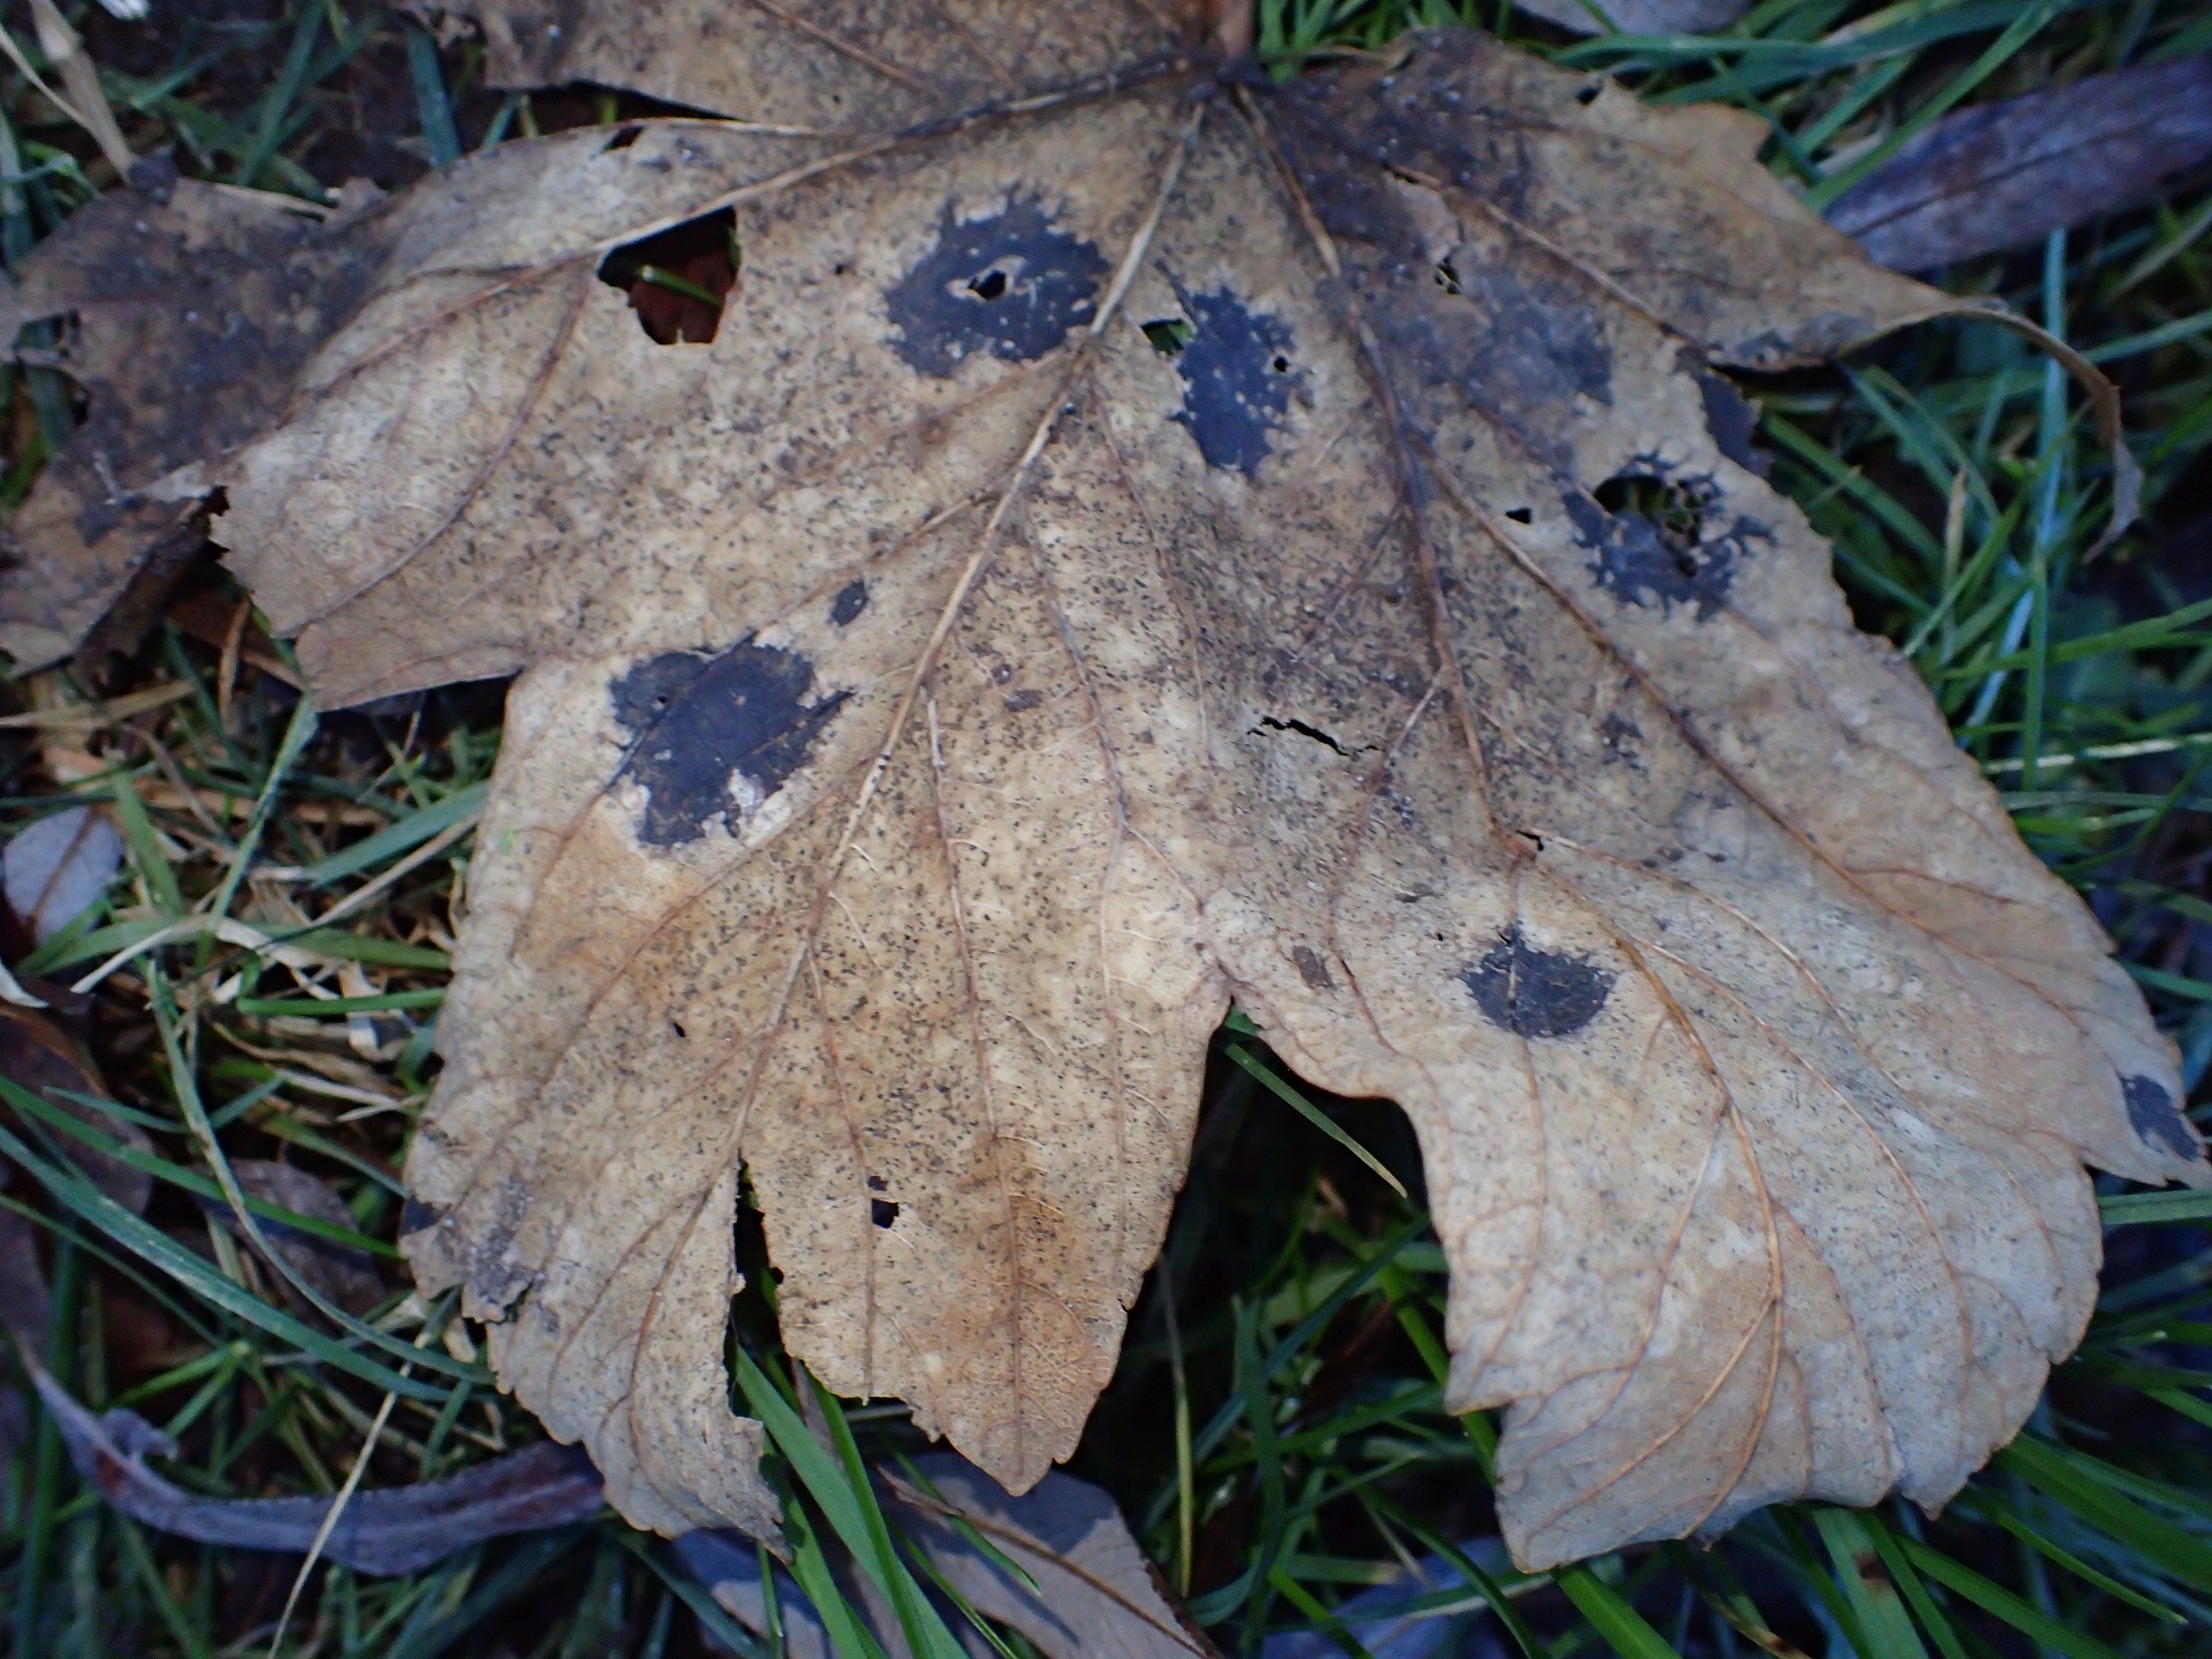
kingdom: Fungi
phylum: Ascomycota
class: Leotiomycetes
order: Rhytismatales
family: Rhytismataceae
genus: Rhytisma
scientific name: Rhytisma acerinum
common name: Ahorn-rynkeplet
